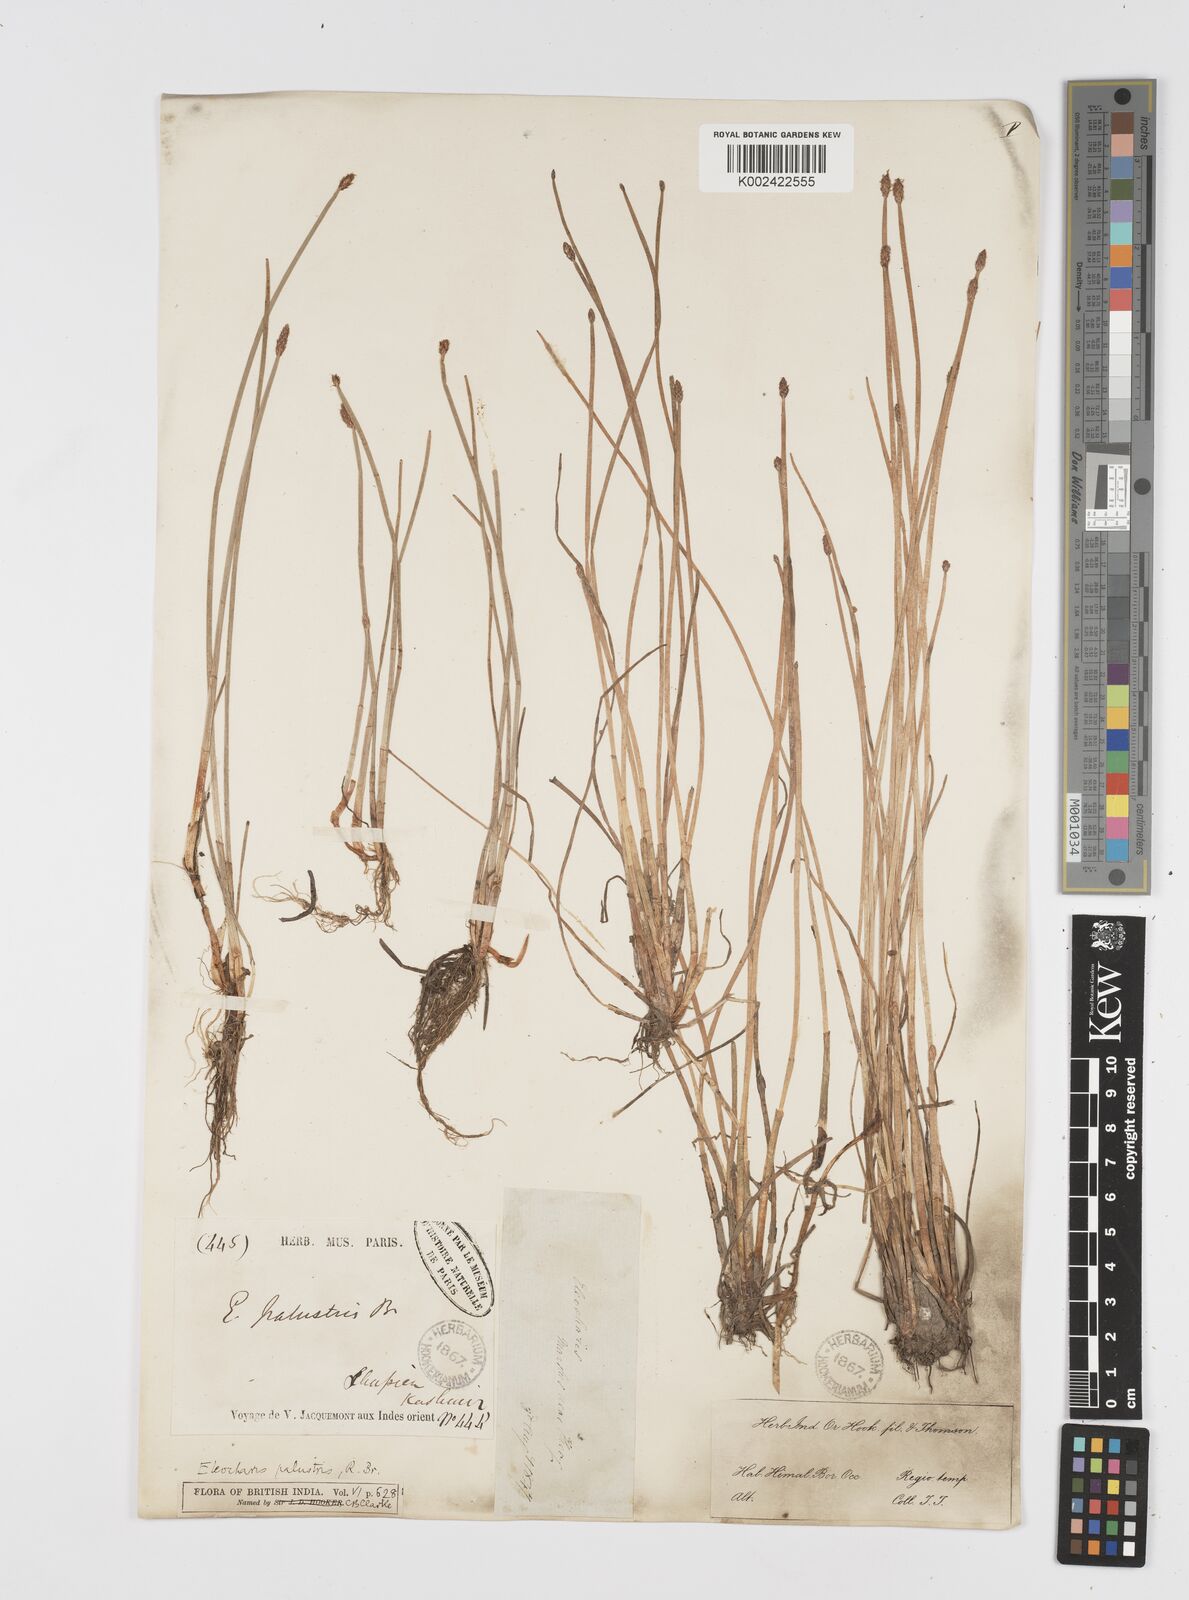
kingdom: Plantae
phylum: Tracheophyta
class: Liliopsida
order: Poales
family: Cyperaceae
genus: Eleocharis
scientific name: Eleocharis palustris
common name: Common spike-rush
